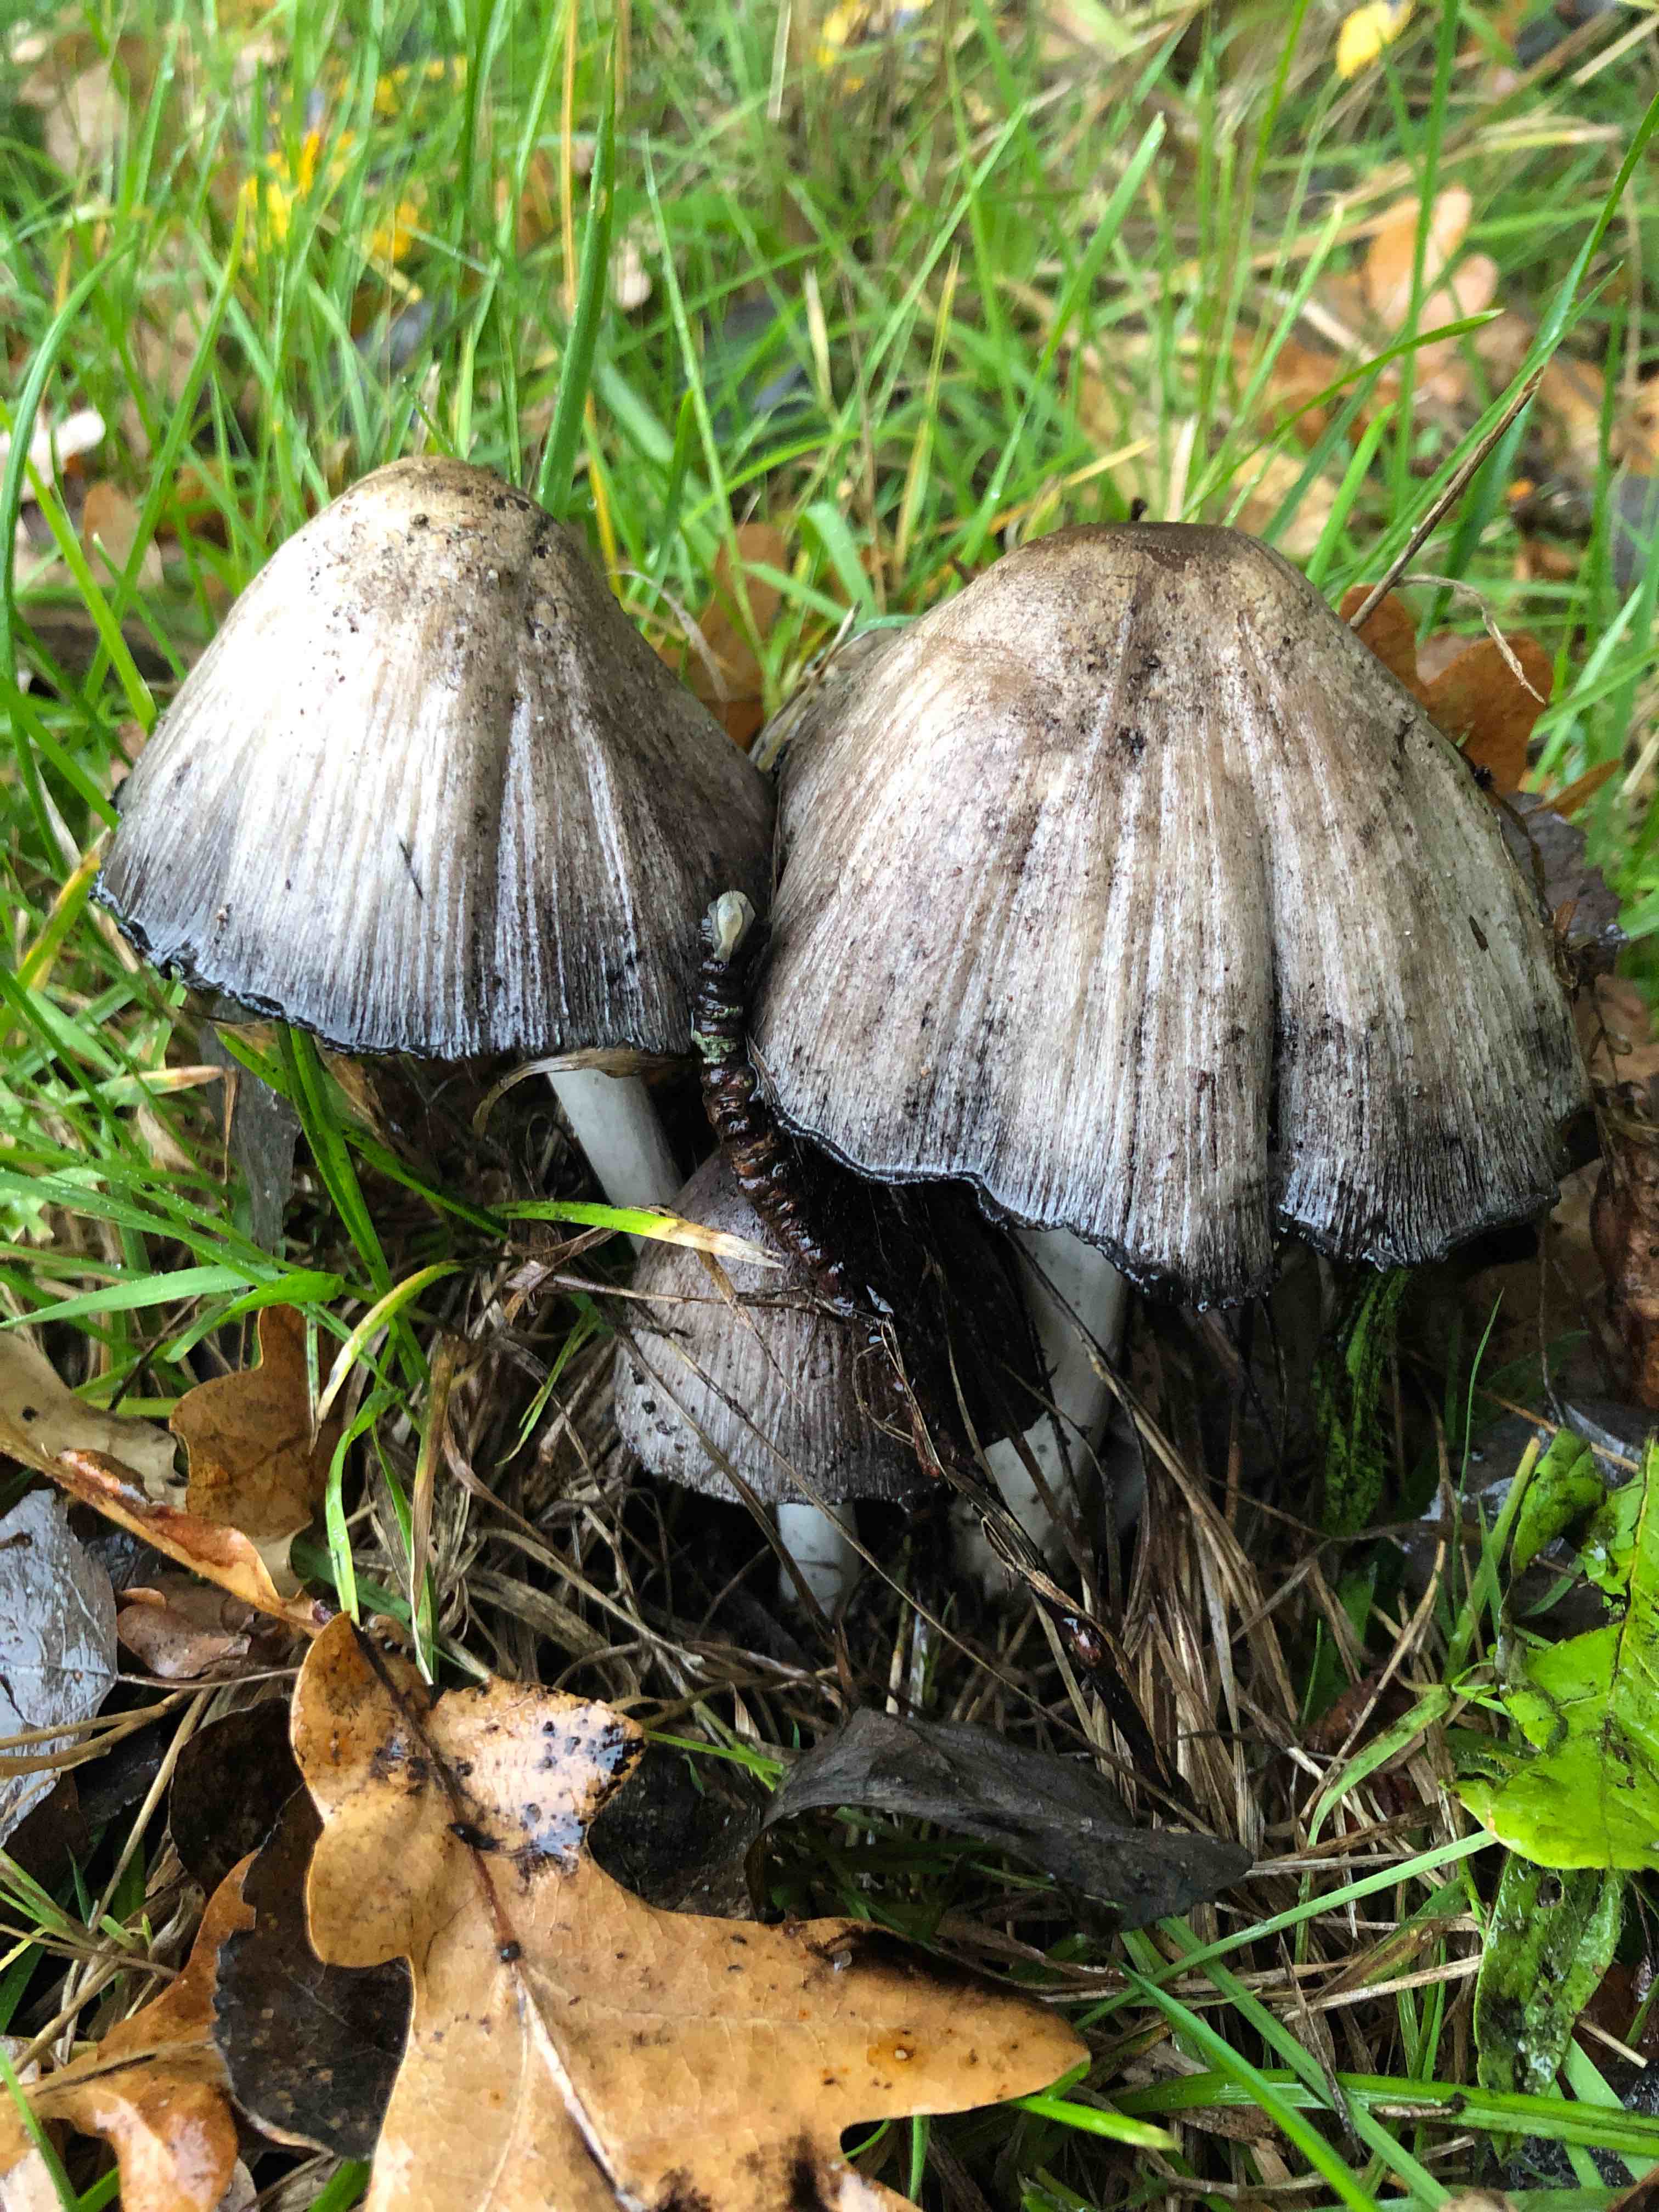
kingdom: Fungi
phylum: Basidiomycota
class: Agaricomycetes
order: Agaricales
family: Psathyrellaceae
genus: Coprinopsis
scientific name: Coprinopsis atramentaria
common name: almindelig blækhat
